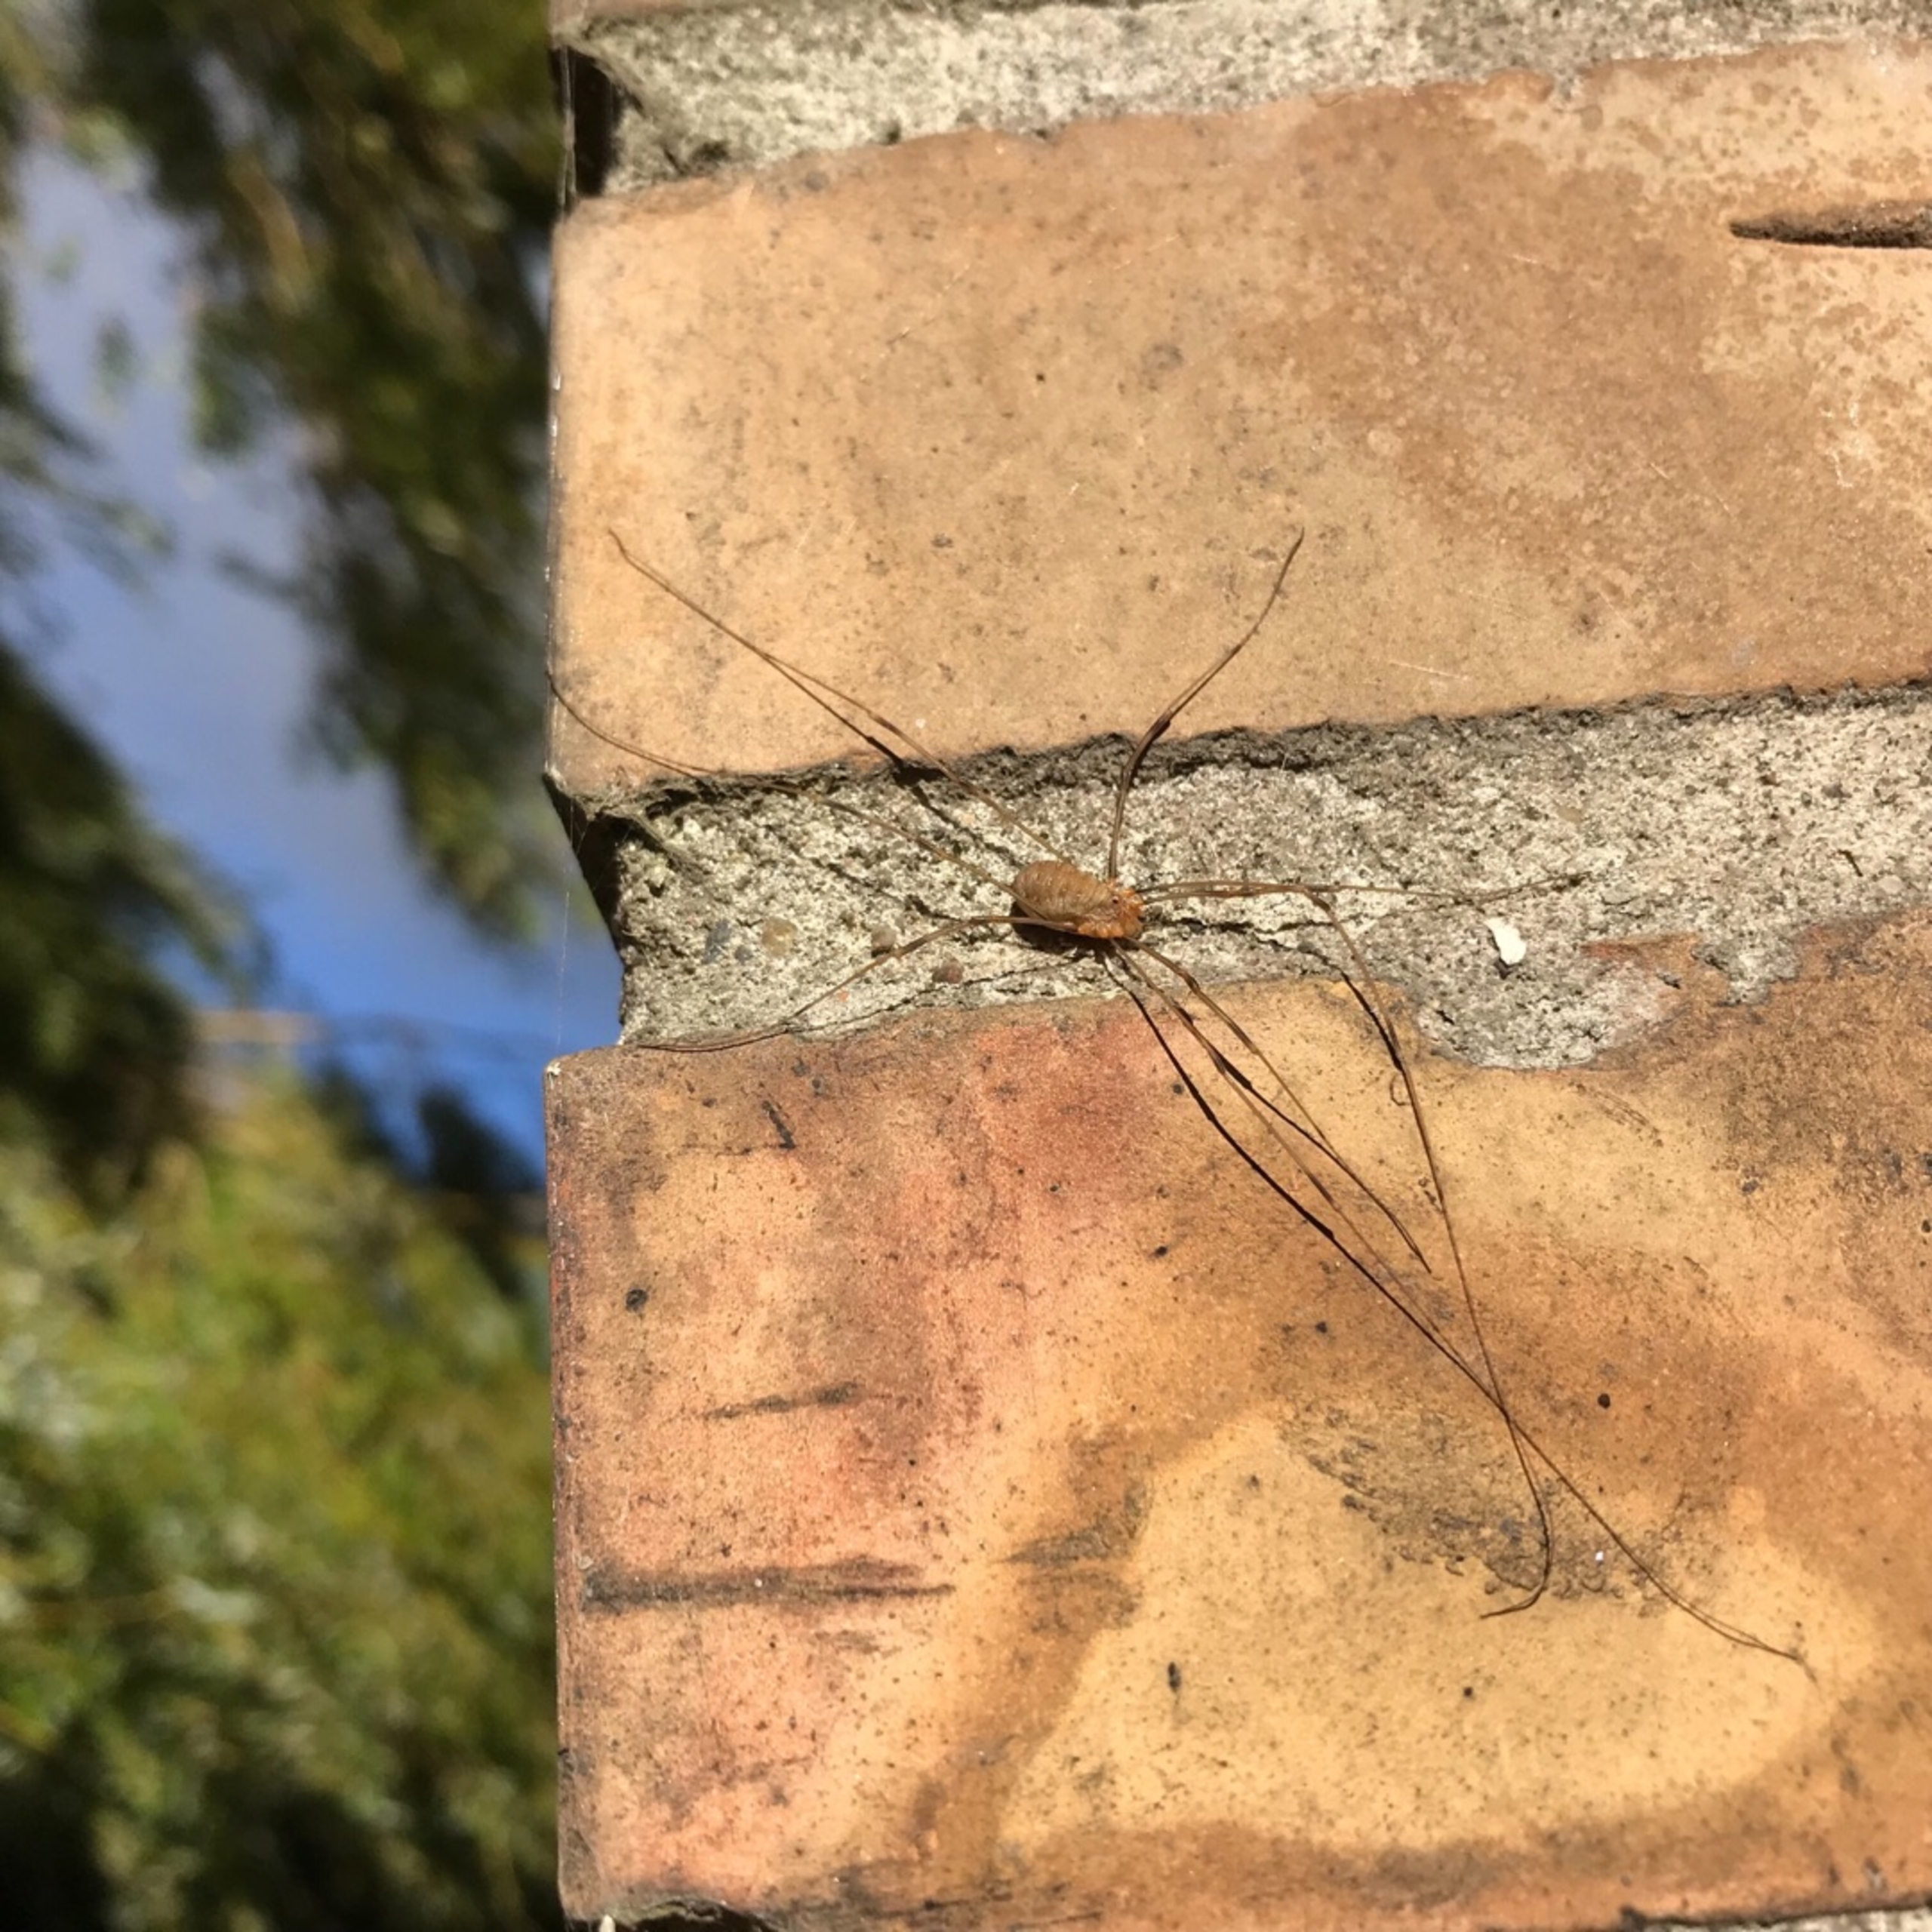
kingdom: Animalia
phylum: Arthropoda
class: Arachnida
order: Opiliones
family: Phalangiidae
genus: Opilio
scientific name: Opilio canestrinii
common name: Orange vægmejer
